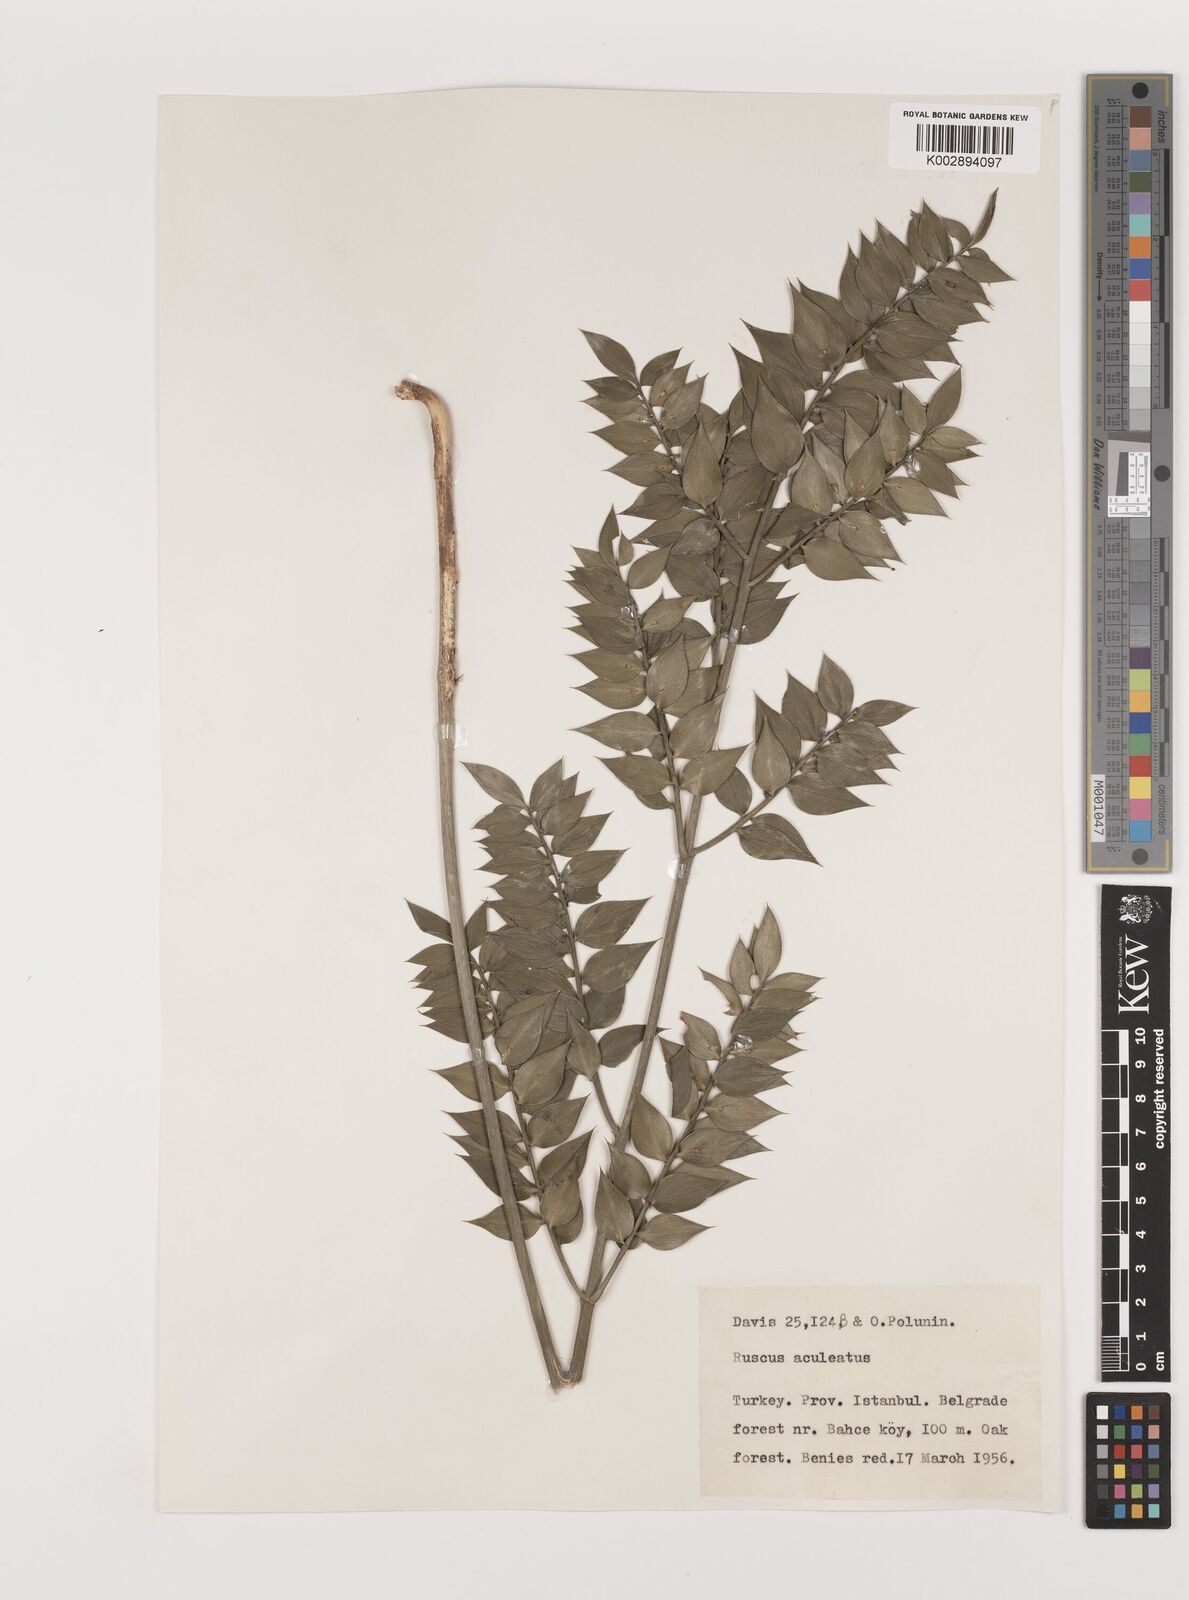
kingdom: Plantae
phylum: Tracheophyta
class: Liliopsida
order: Asparagales
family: Asparagaceae
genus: Ruscus
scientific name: Ruscus aculeatus
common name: Butcher's-broom
